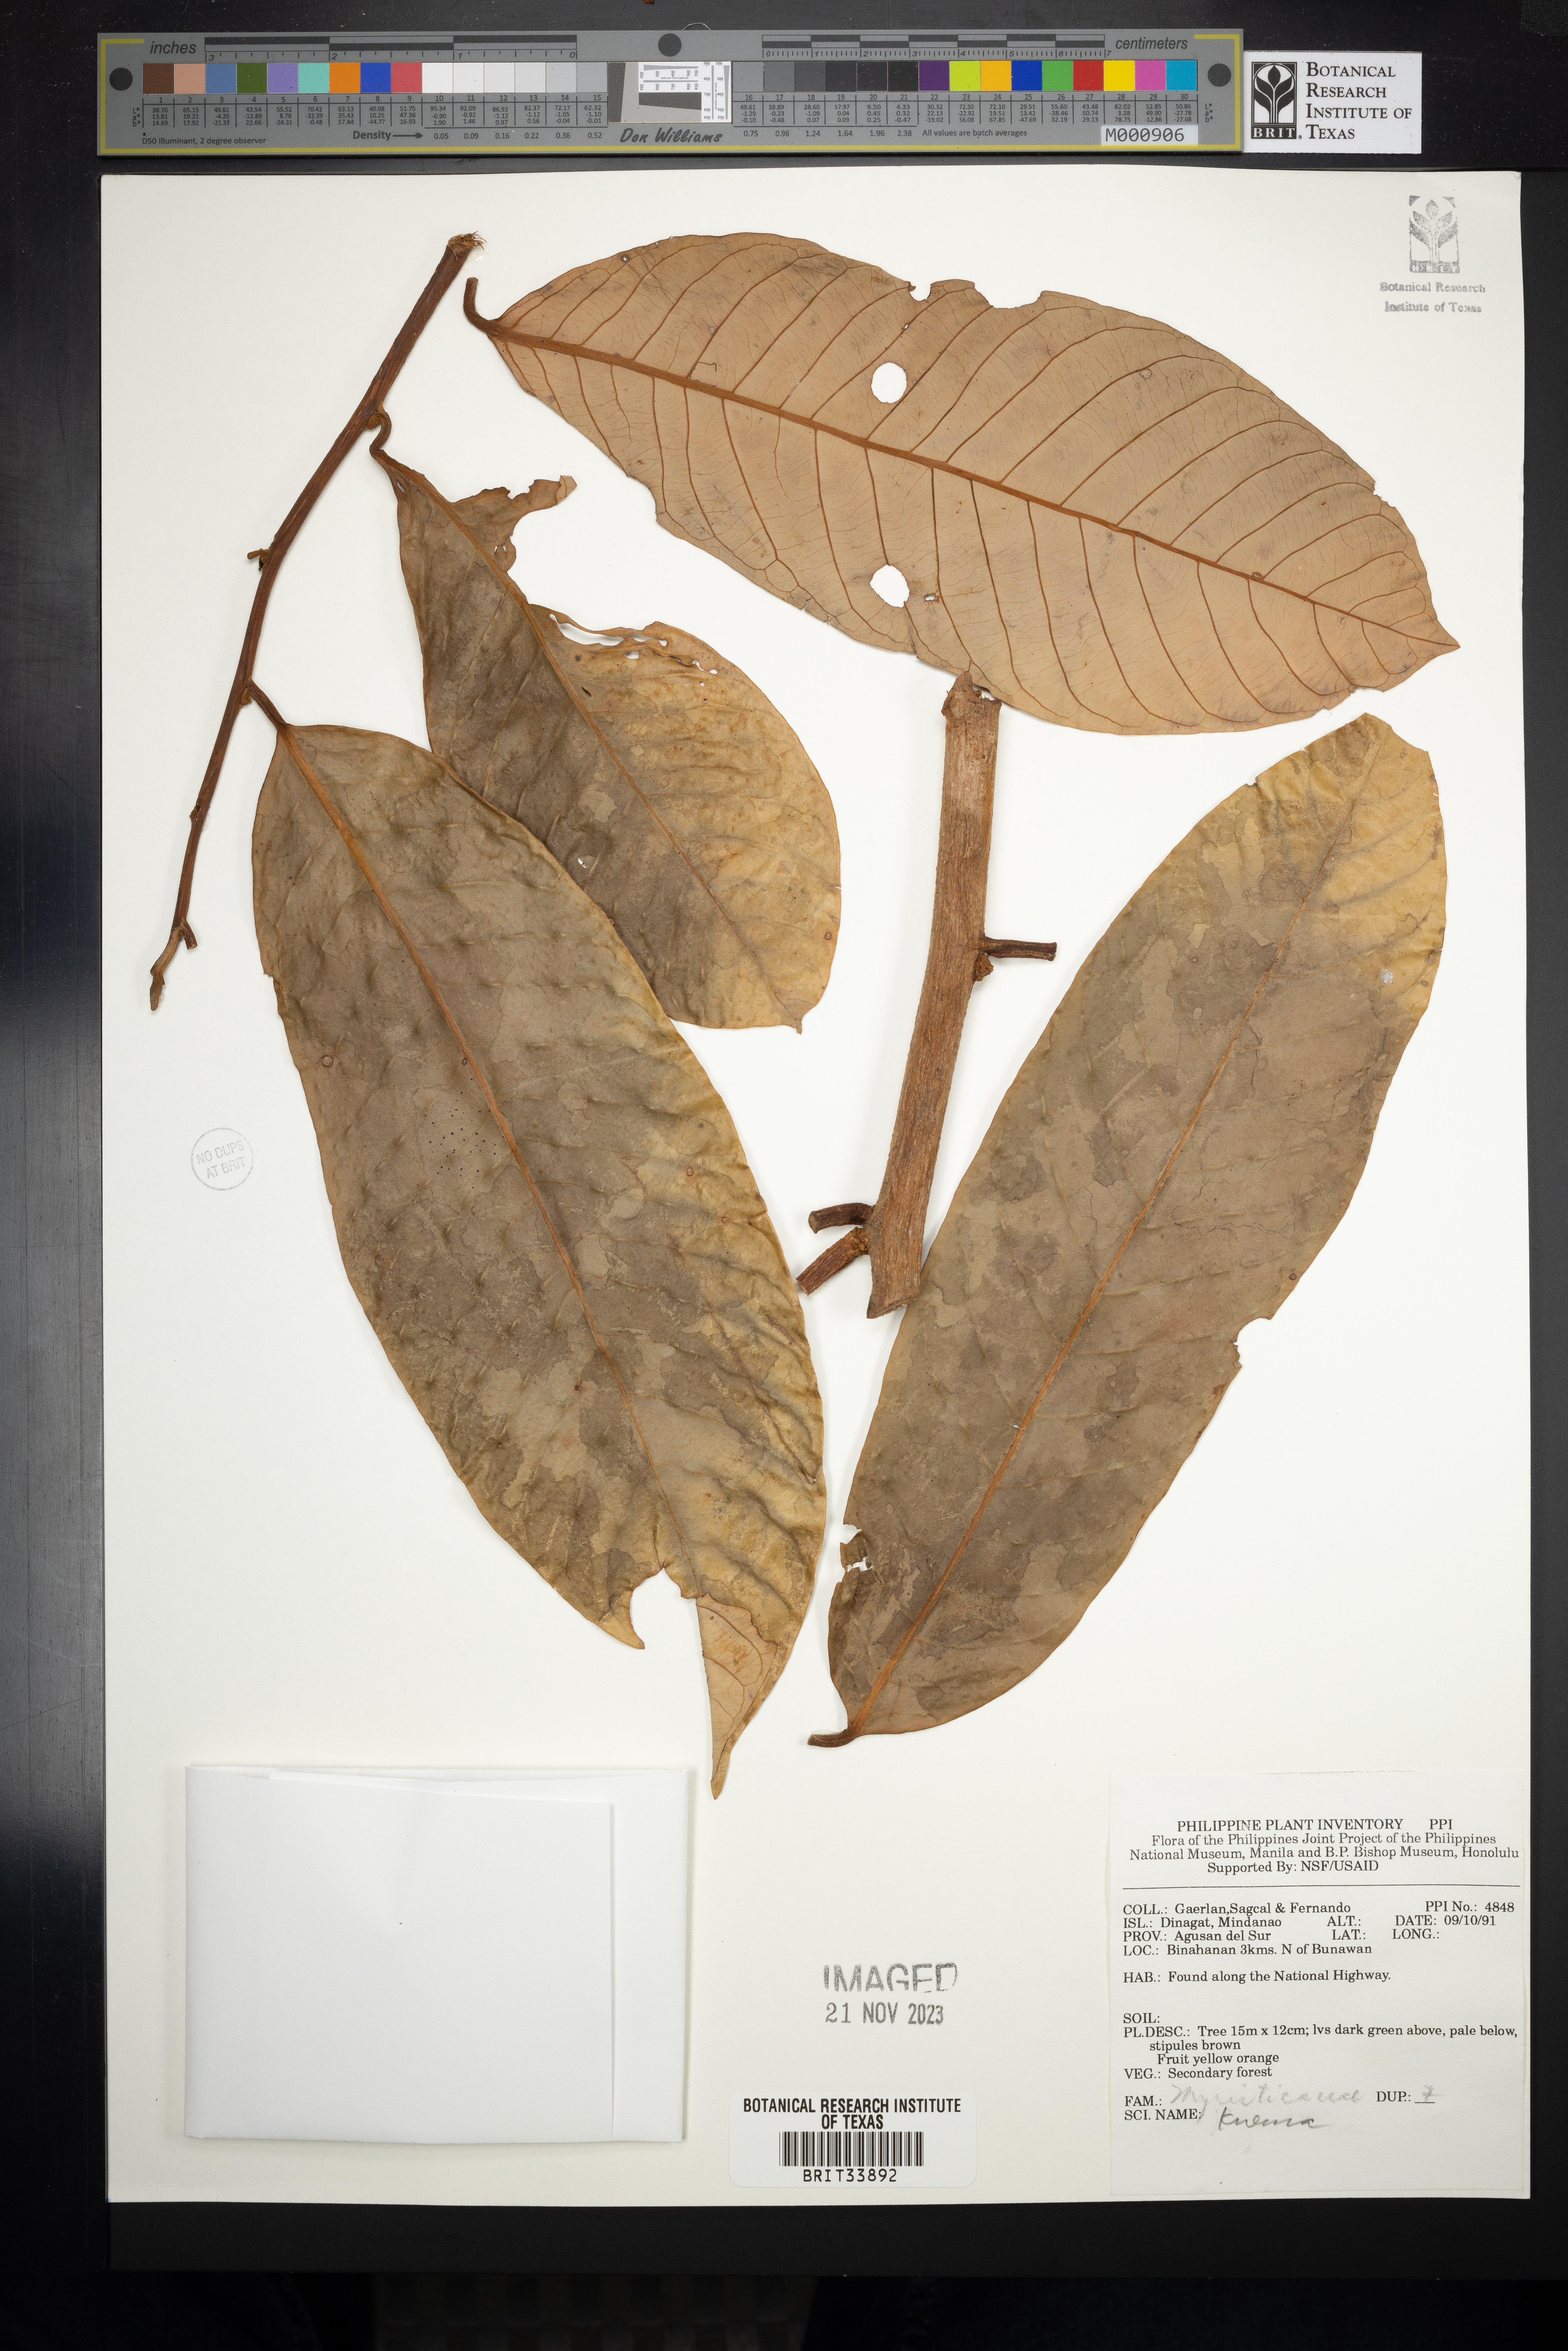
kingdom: Plantae
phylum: Tracheophyta
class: Magnoliopsida
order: Magnoliales
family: Myristicaceae
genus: Knema
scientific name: Knema
